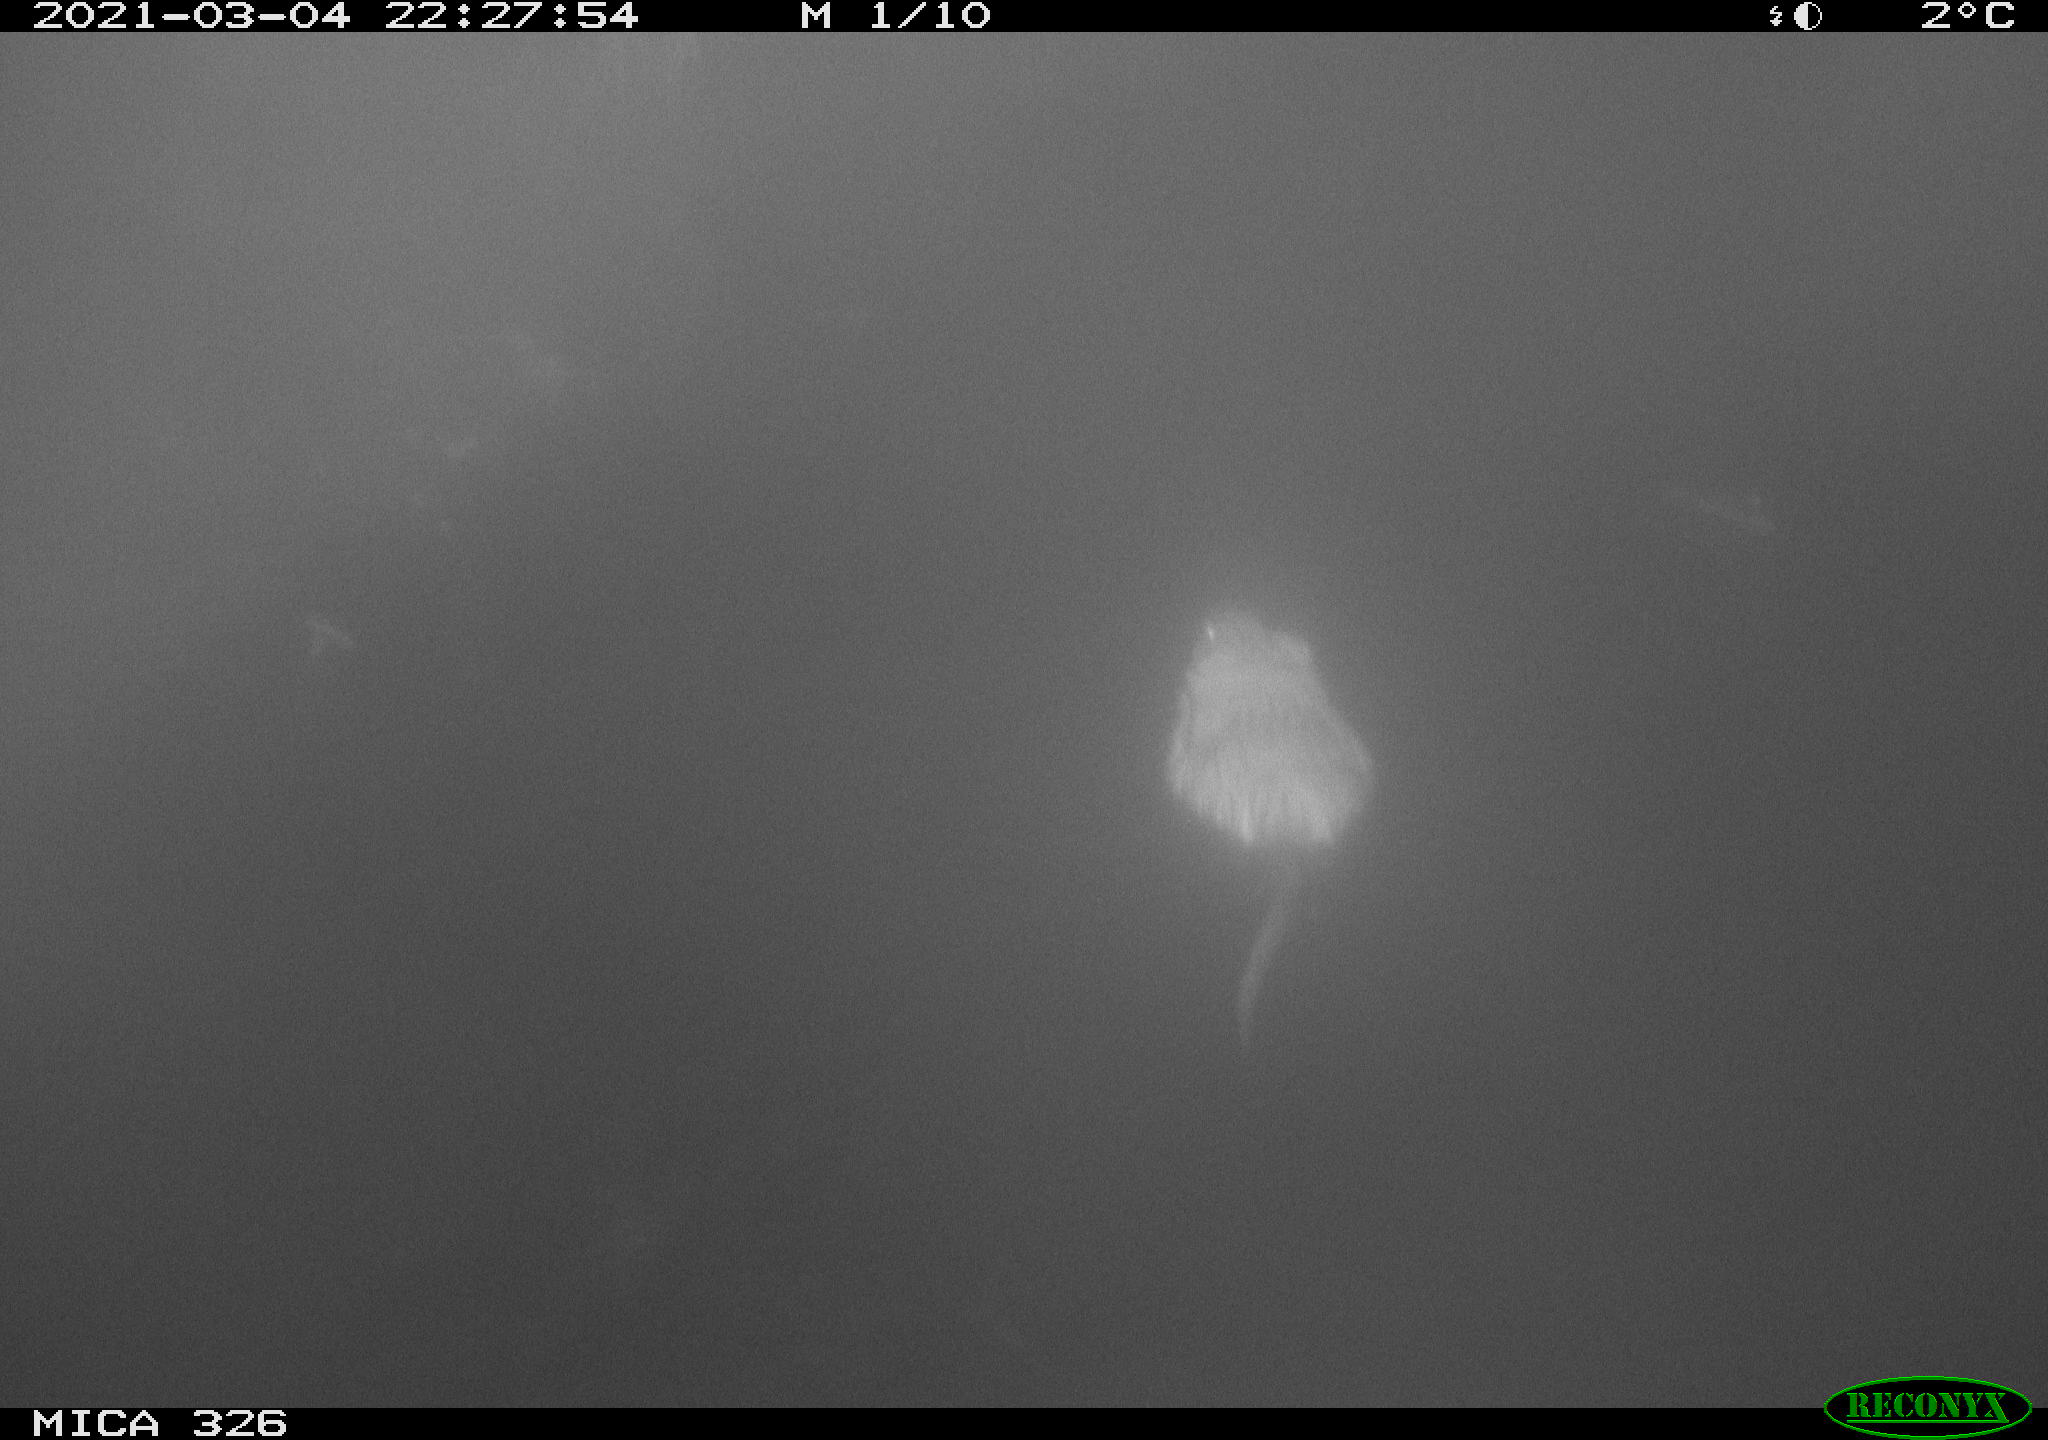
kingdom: Animalia
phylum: Chordata
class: Mammalia
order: Rodentia
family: Cricetidae
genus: Ondatra
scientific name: Ondatra zibethicus
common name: Muskrat
